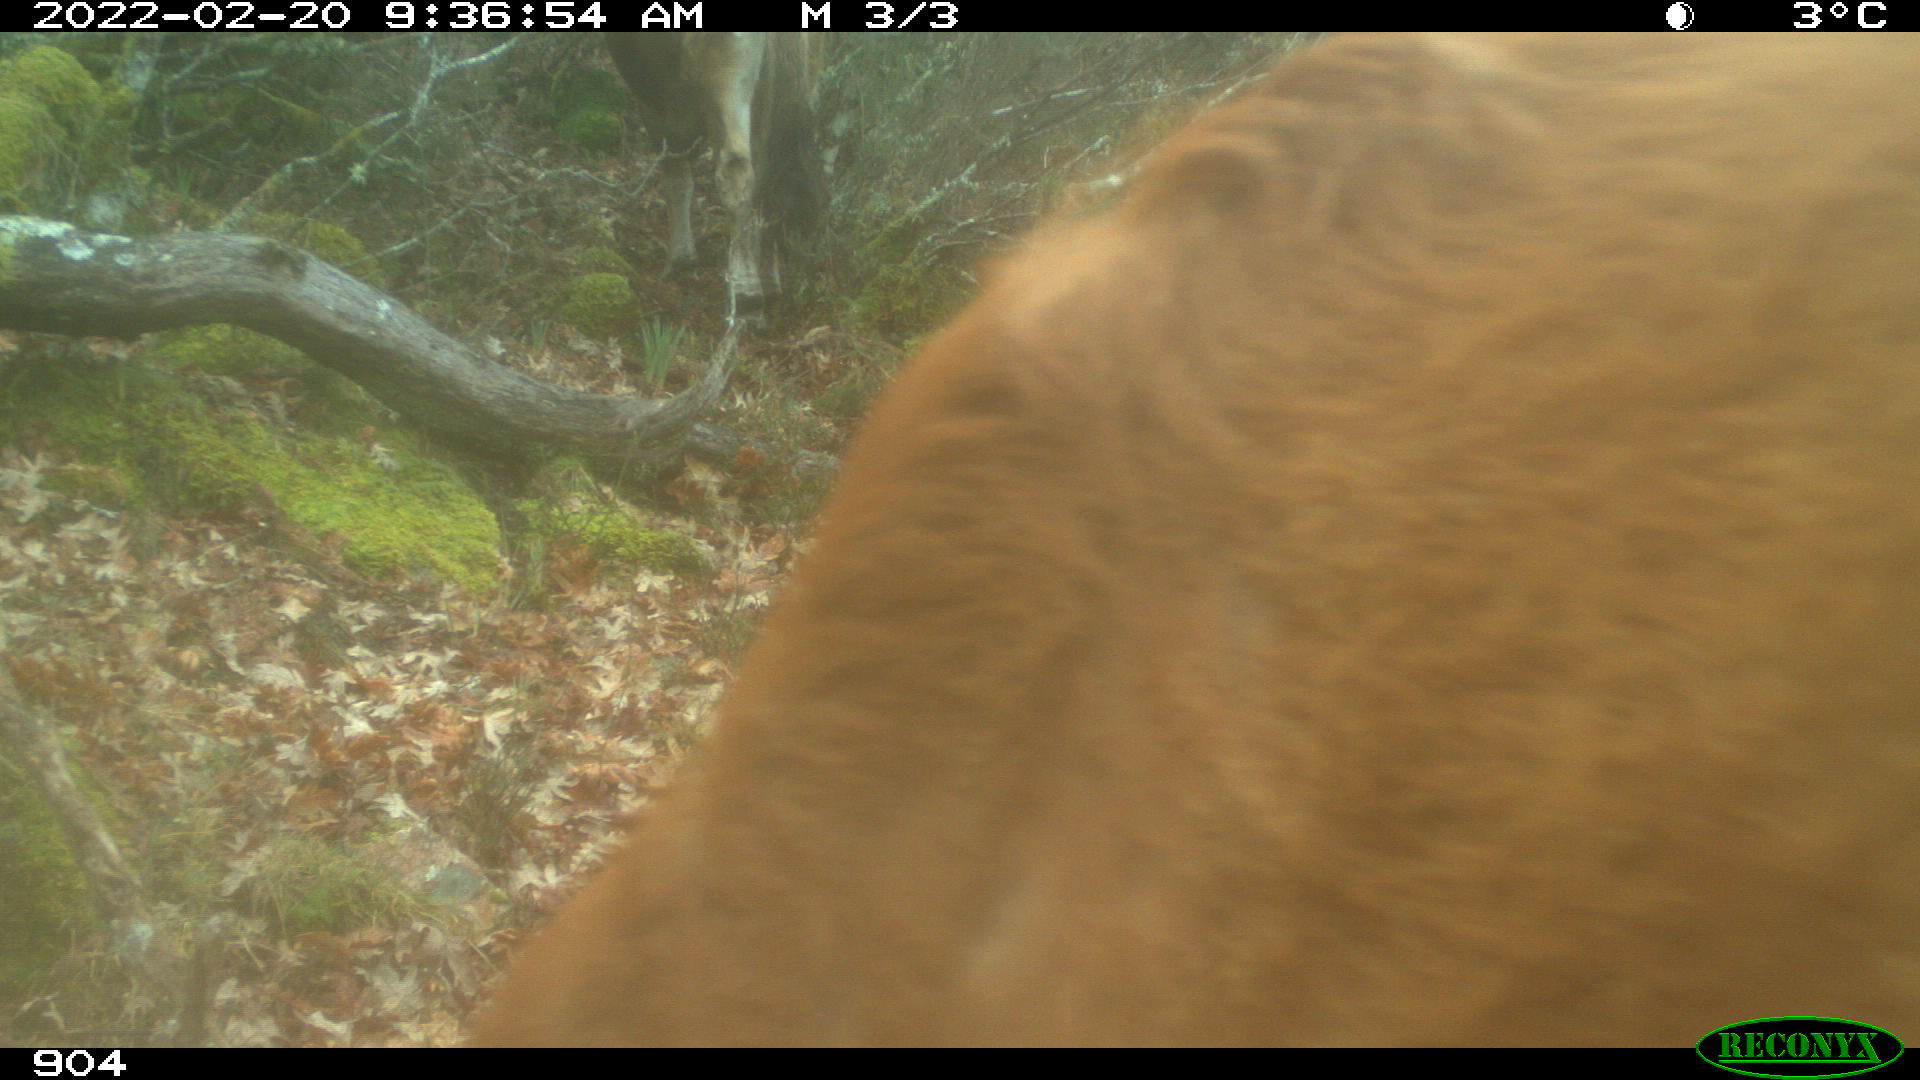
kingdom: Animalia
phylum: Chordata
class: Mammalia
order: Artiodactyla
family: Bovidae
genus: Bos
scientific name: Bos taurus
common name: Domesticated cattle
